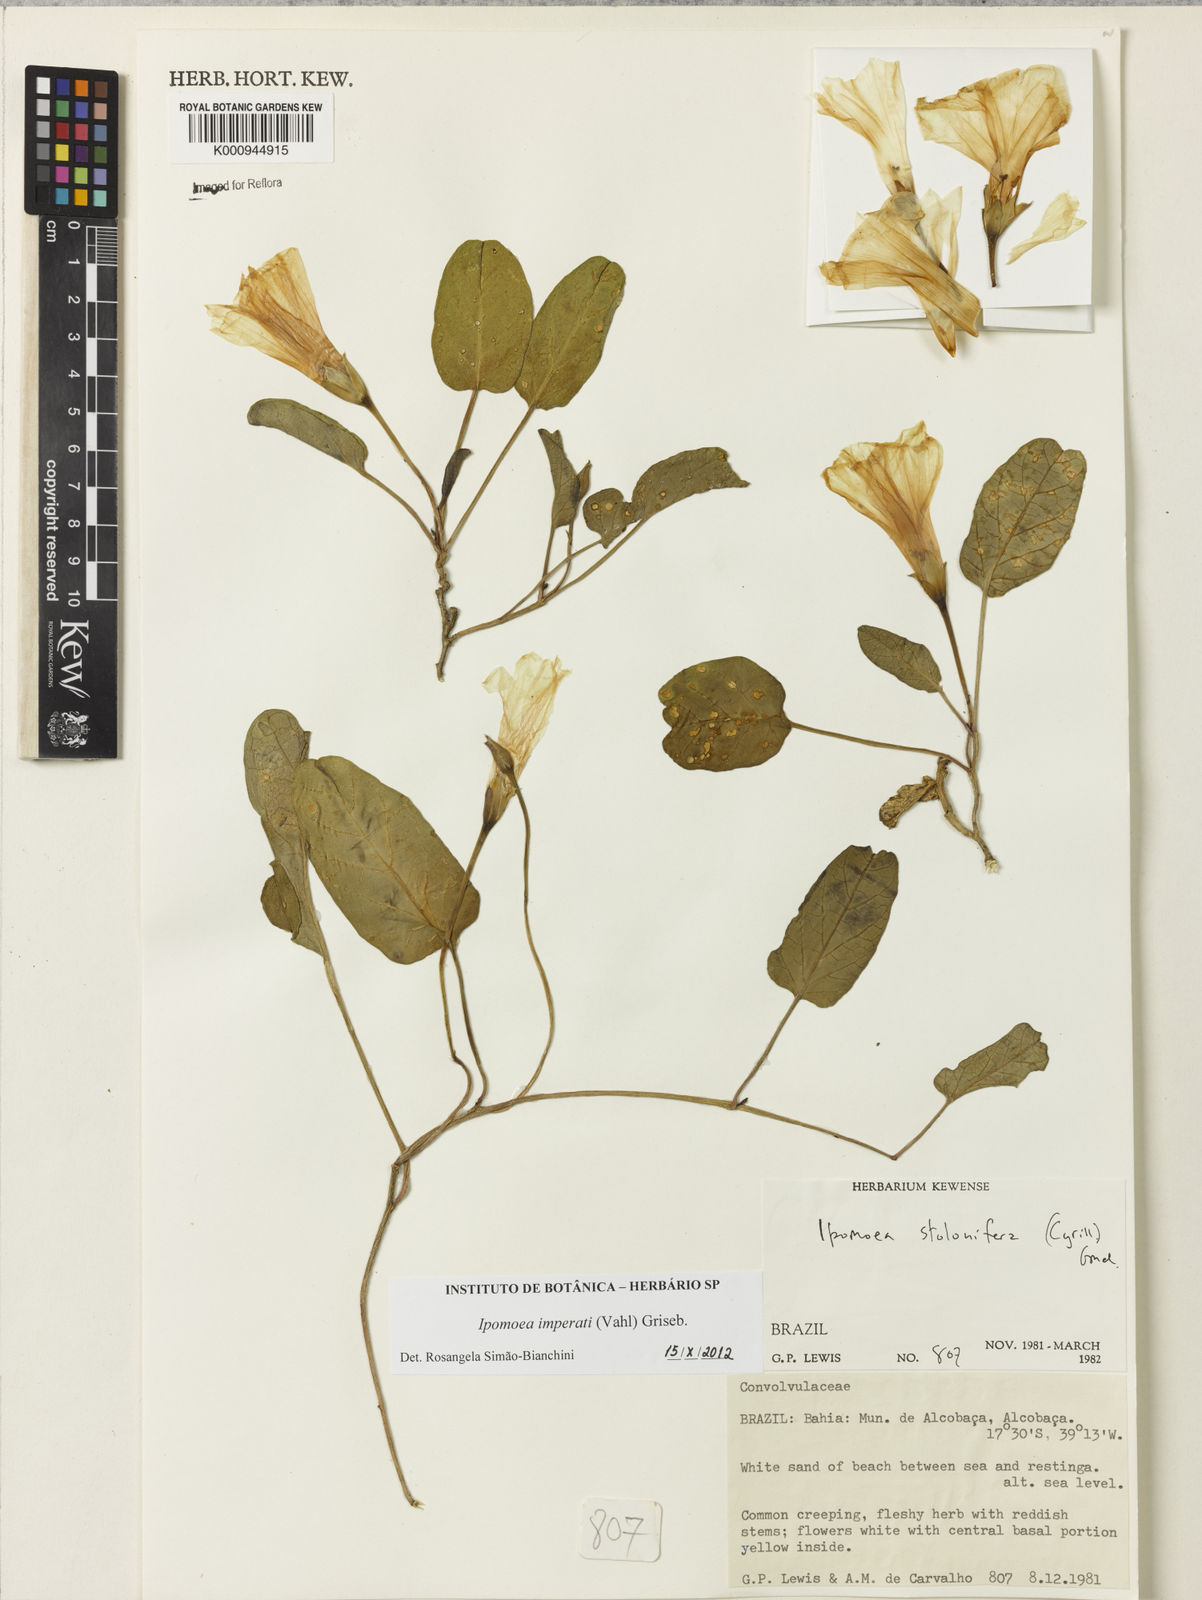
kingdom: Plantae
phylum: Tracheophyta
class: Magnoliopsida
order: Solanales
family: Convolvulaceae
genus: Ipomoea
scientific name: Ipomoea imperati
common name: Fiddle-leaf morning-glory
